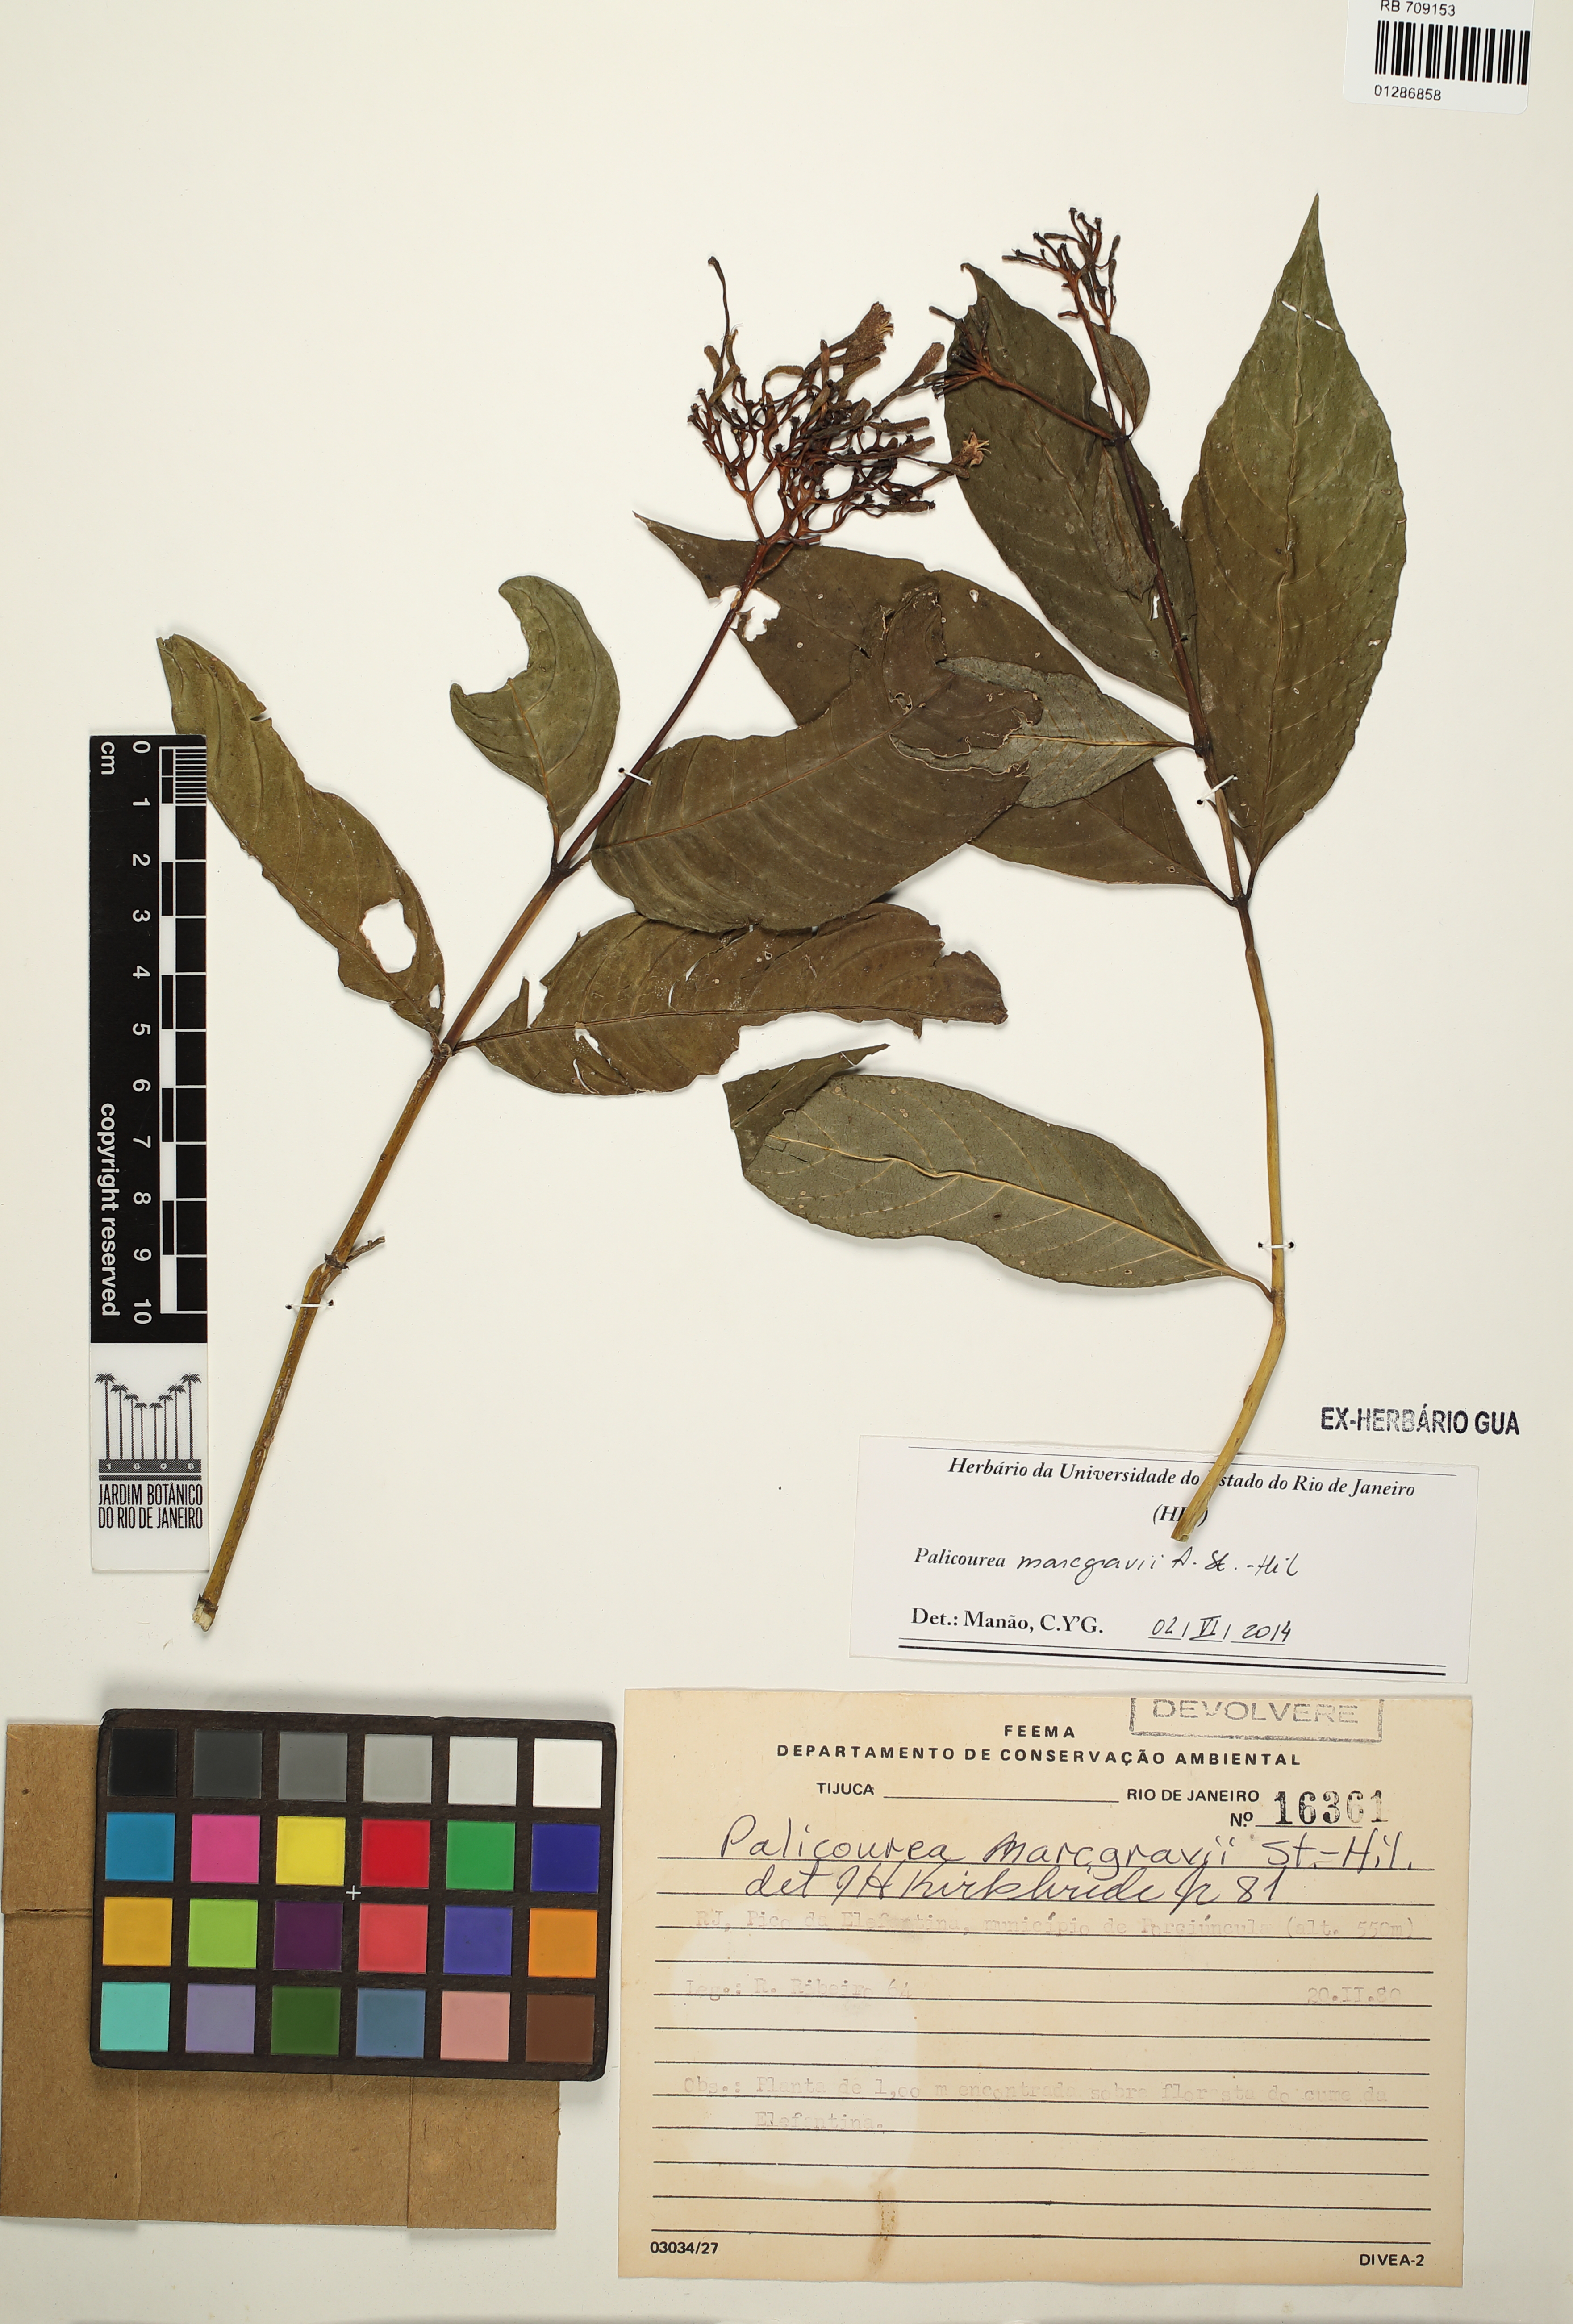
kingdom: Plantae
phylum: Tracheophyta
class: Magnoliopsida
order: Gentianales
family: Rubiaceae
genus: Palicourea
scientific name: Palicourea marcgravii
